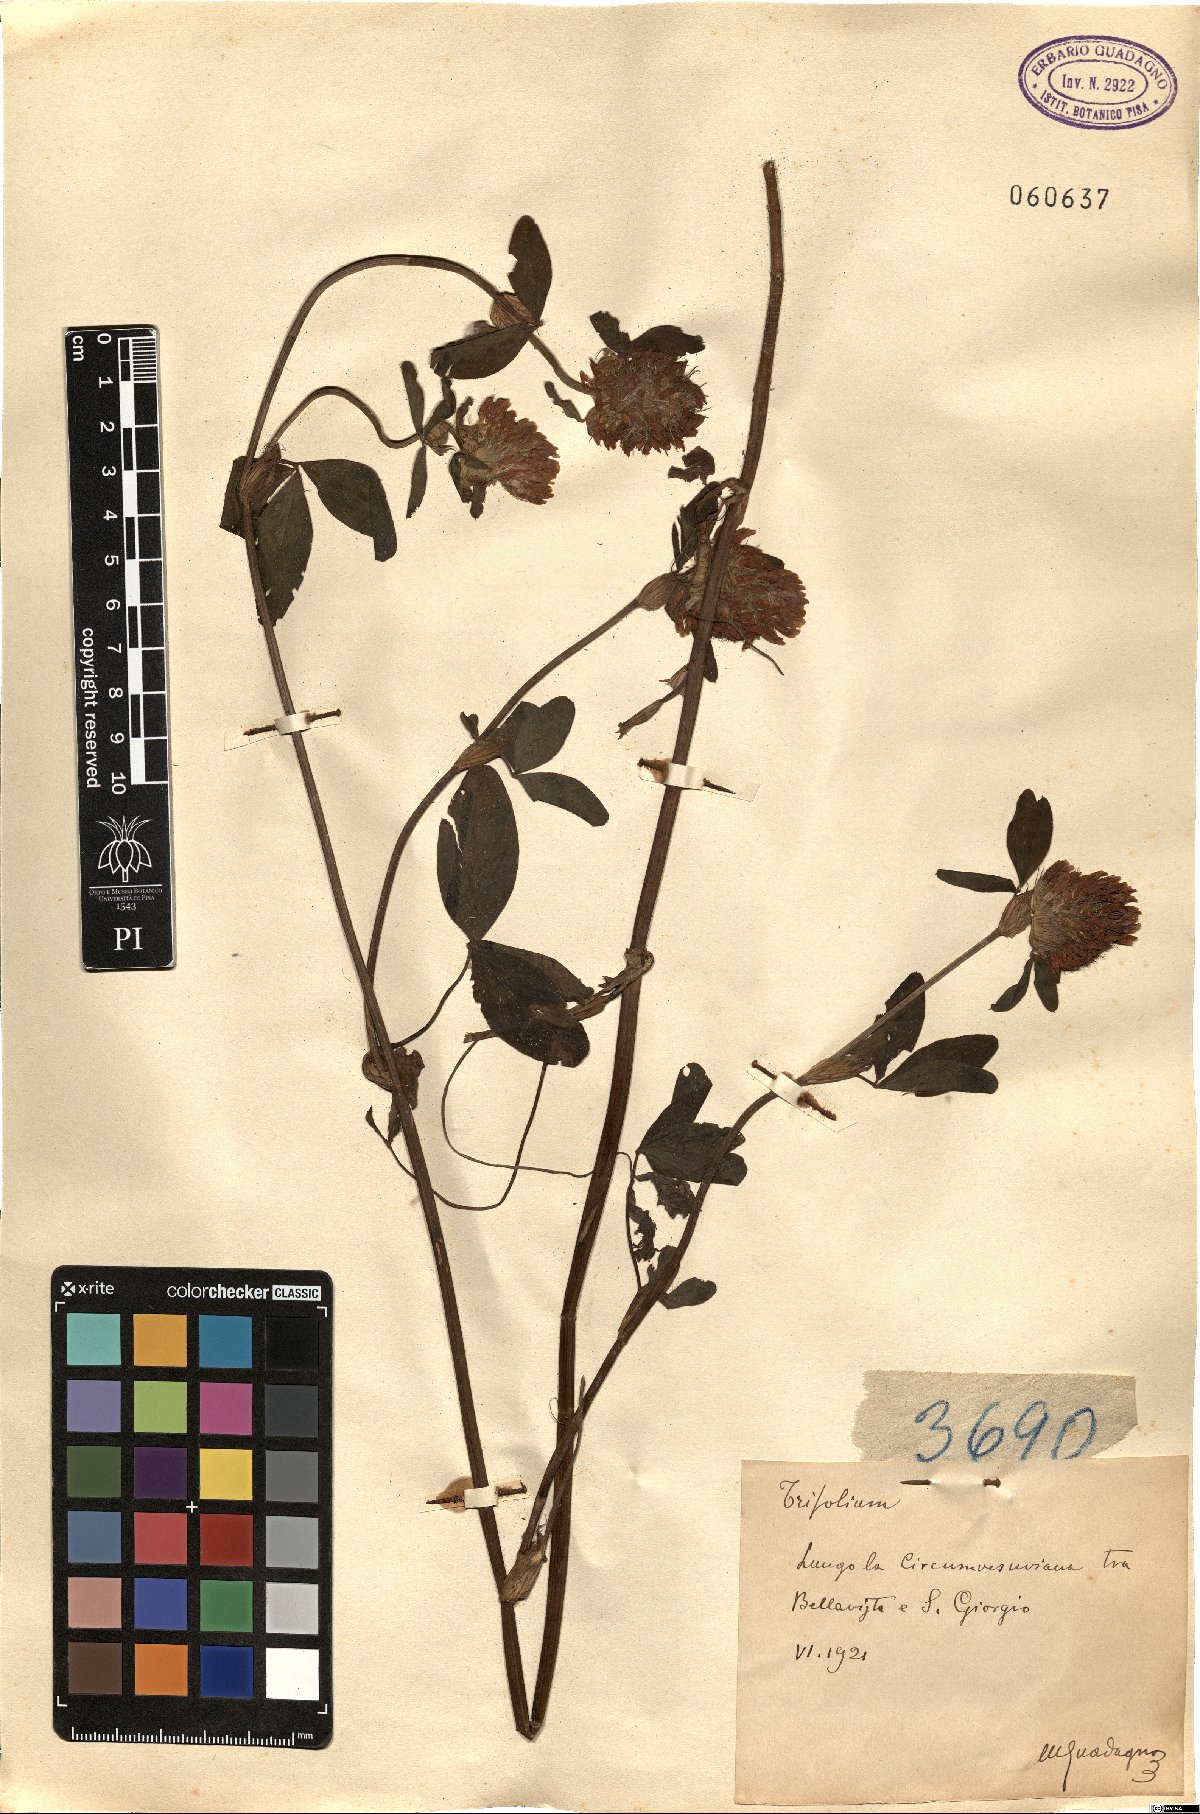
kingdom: Plantae
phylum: Tracheophyta
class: Magnoliopsida
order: Fabales
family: Fabaceae
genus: Trifolium
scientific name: Trifolium
